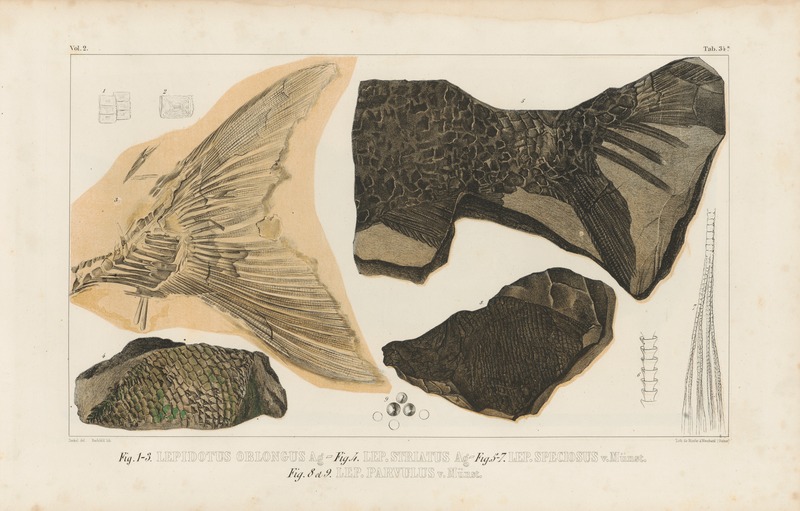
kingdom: Animalia
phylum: Chordata
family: Callipurbeckiidae
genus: Paralepidotus
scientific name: Paralepidotus Lepidotes ornatus
